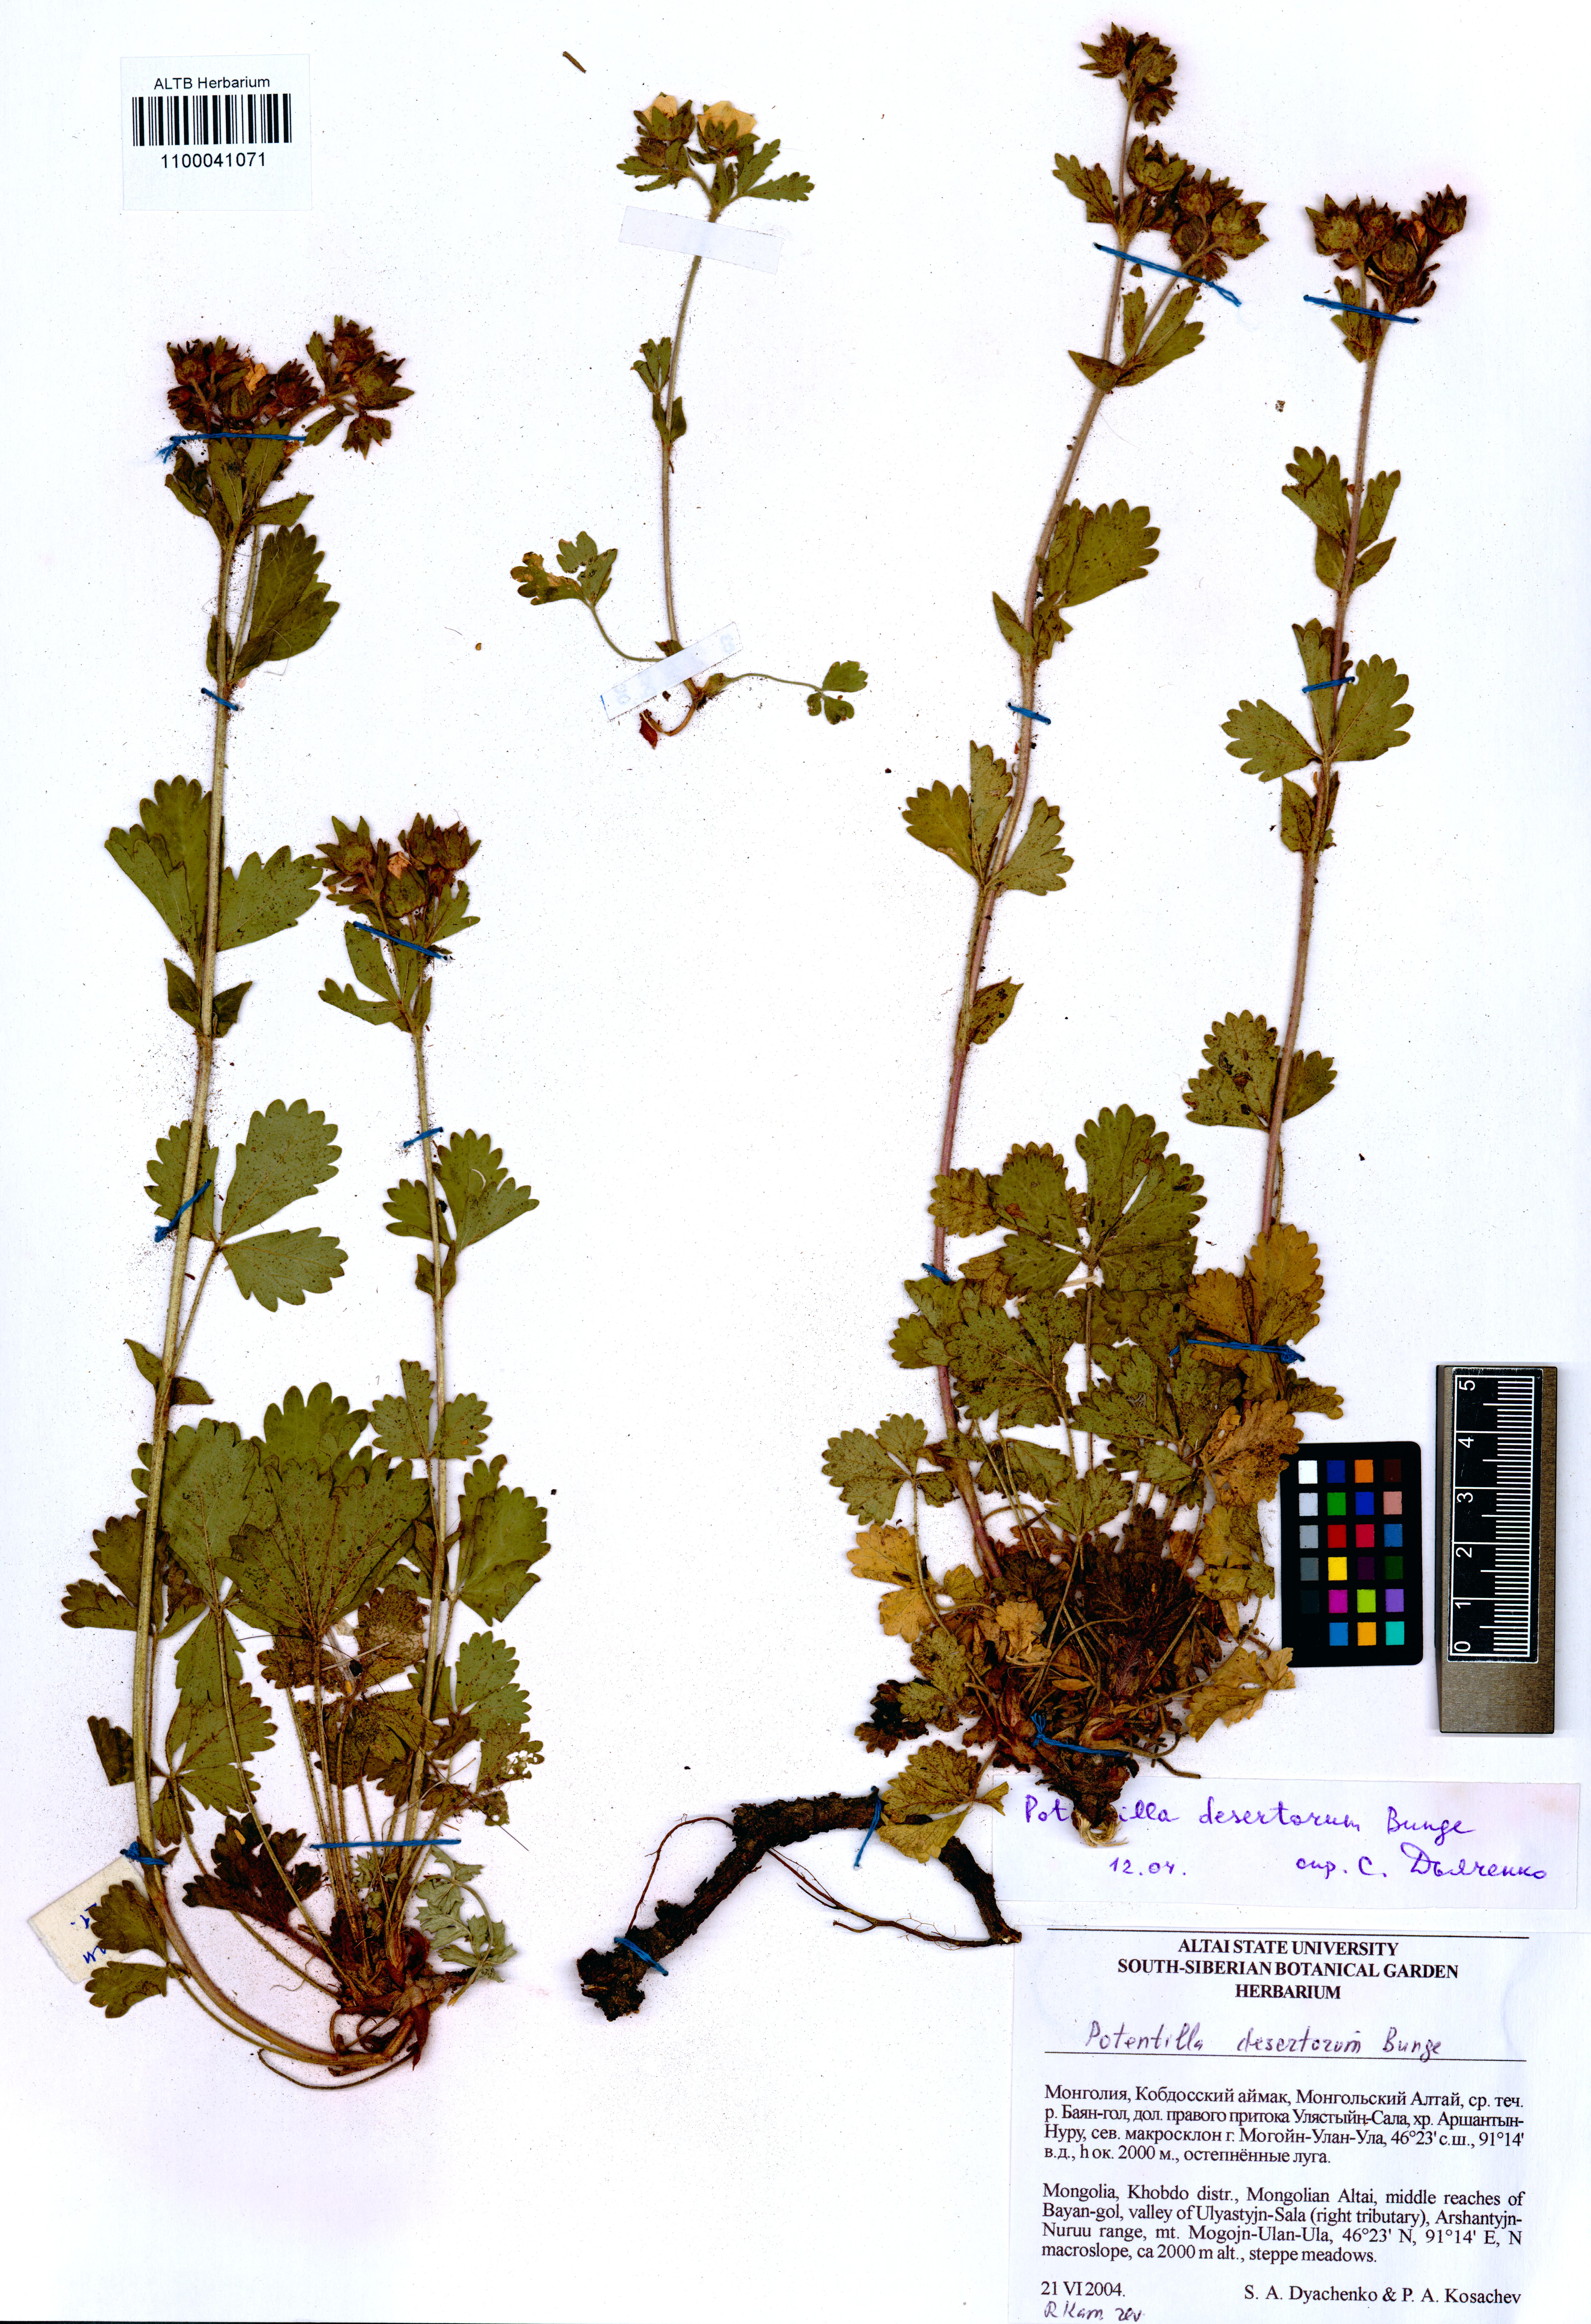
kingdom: Plantae
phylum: Tracheophyta
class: Magnoliopsida
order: Rosales
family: Rosaceae
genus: Potentilla
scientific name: Potentilla desertorum
